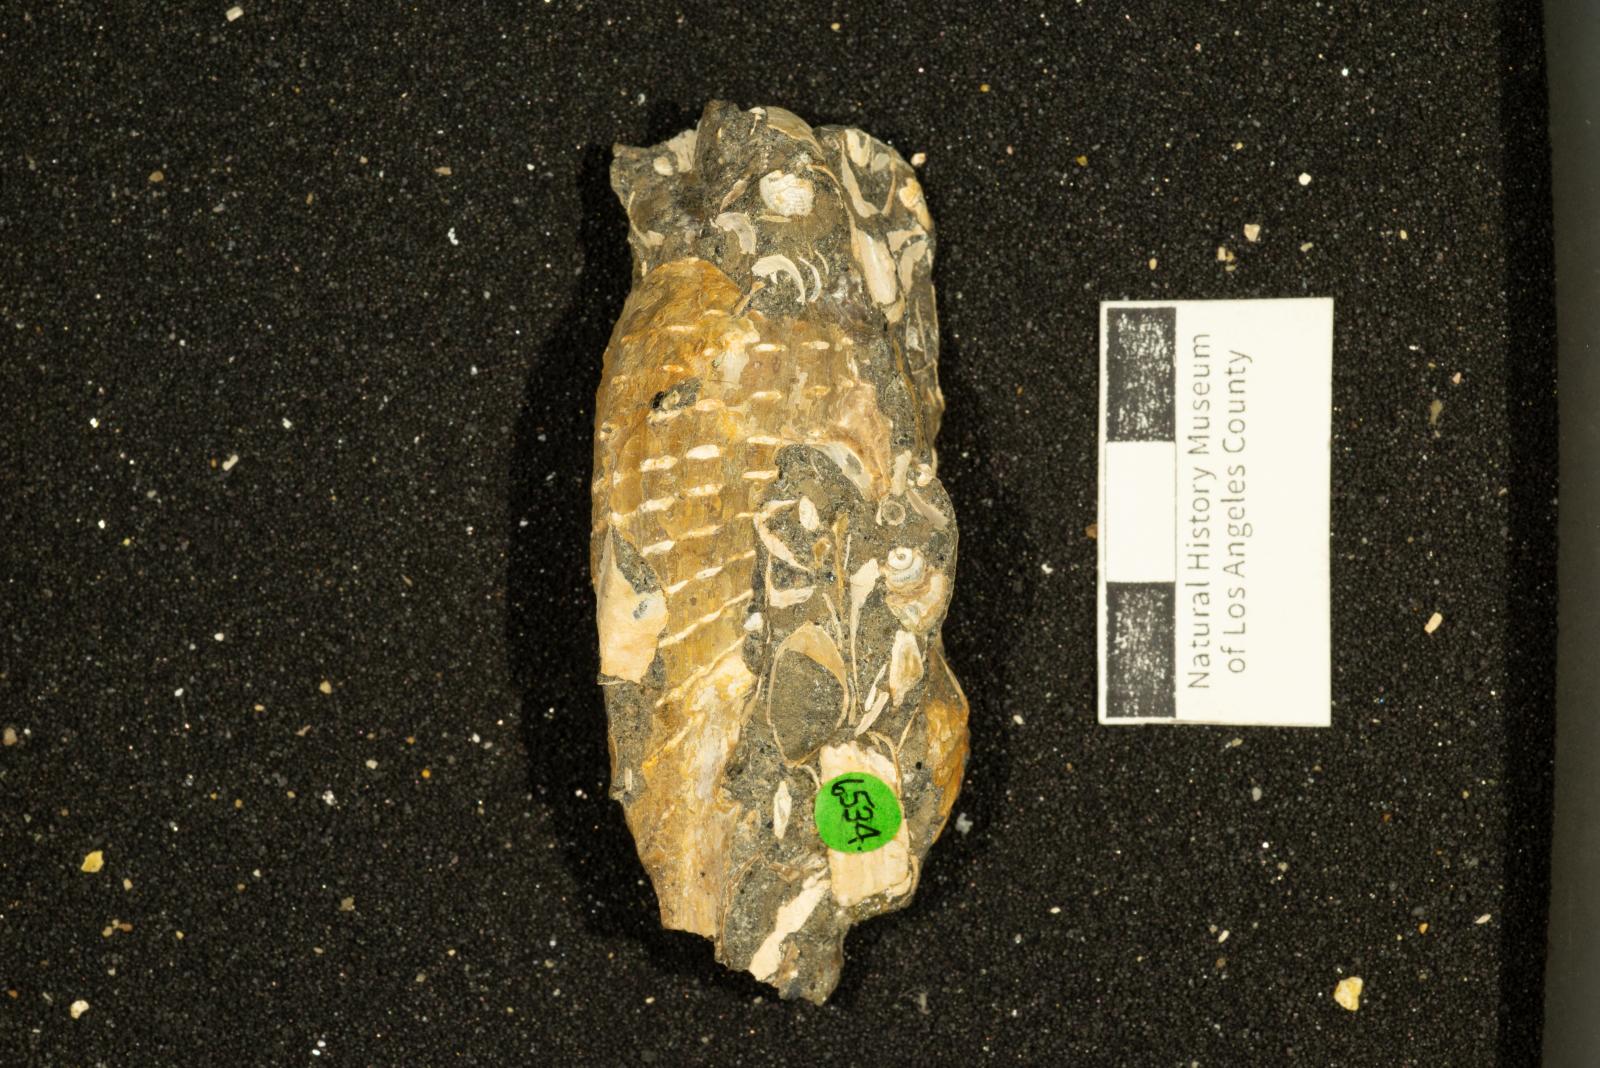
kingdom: Animalia
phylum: Mollusca
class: Gastropoda
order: Neogastropoda
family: Pholidotomidae
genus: Volutoderma
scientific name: Volutoderma perissa
